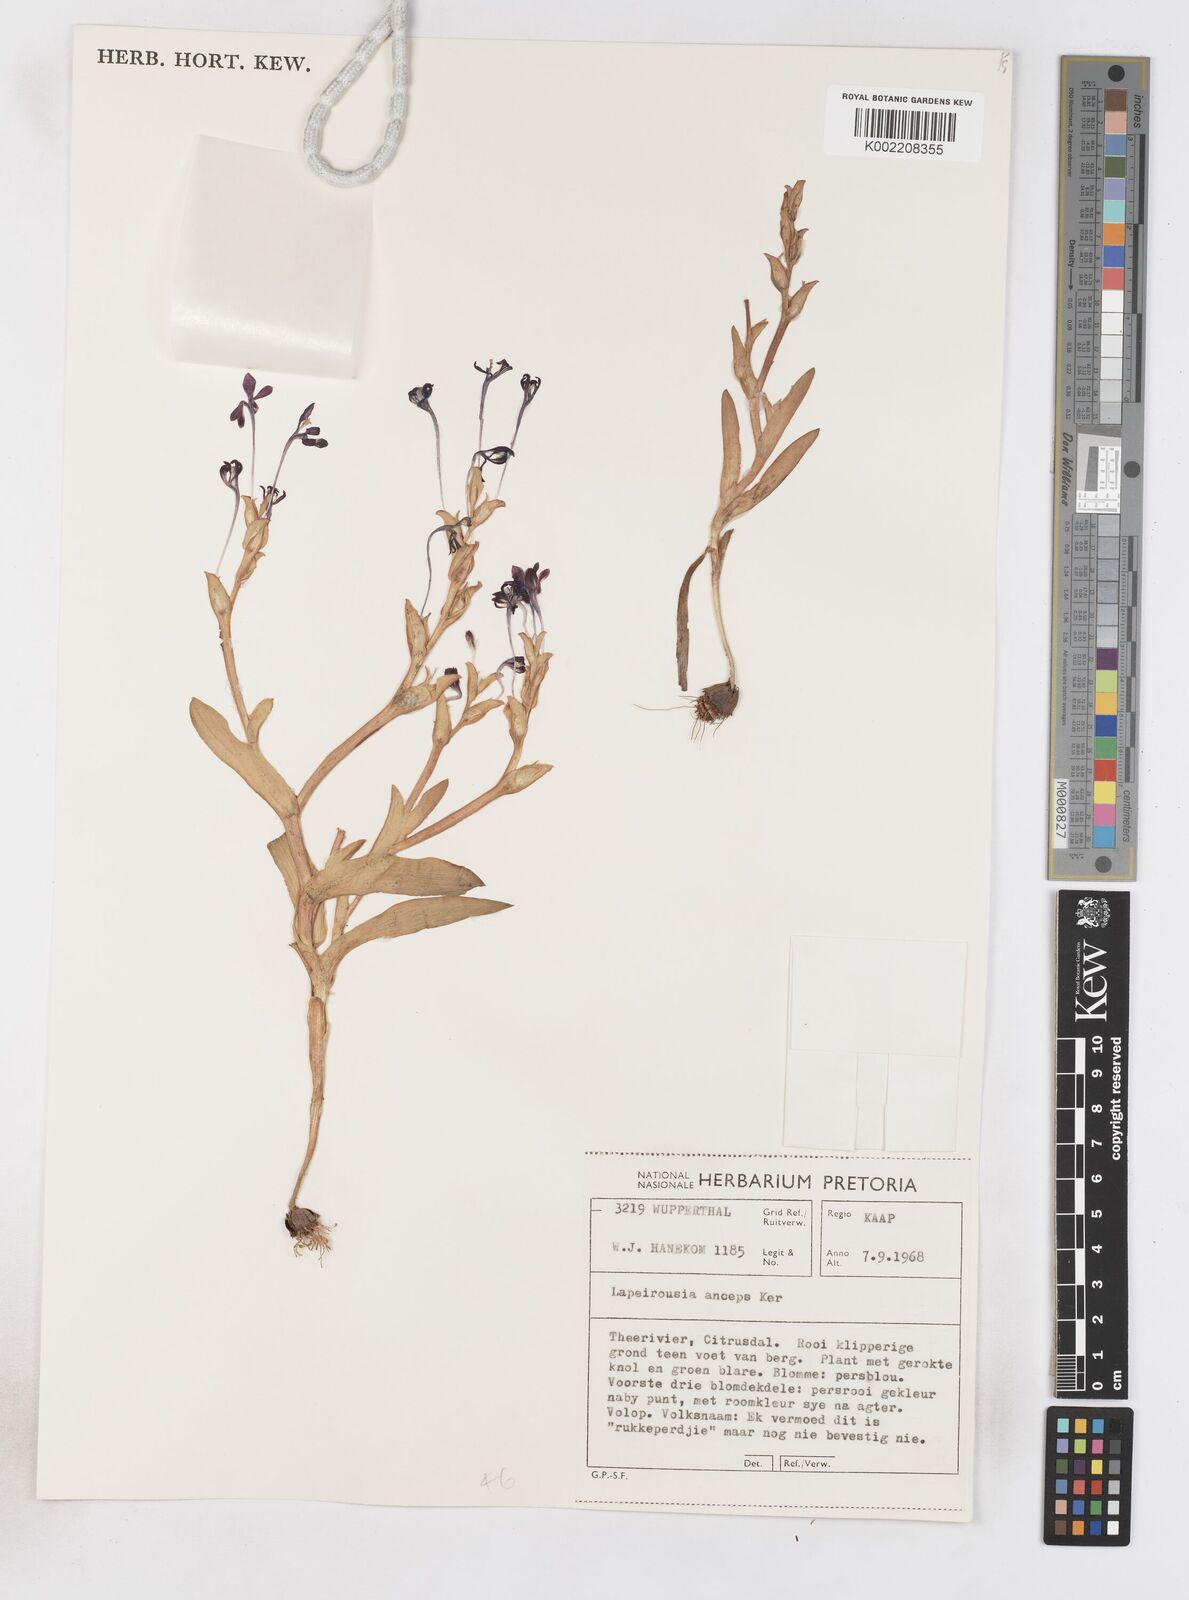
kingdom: Plantae
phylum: Tracheophyta
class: Liliopsida
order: Asparagales
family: Iridaceae
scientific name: Iridaceae
